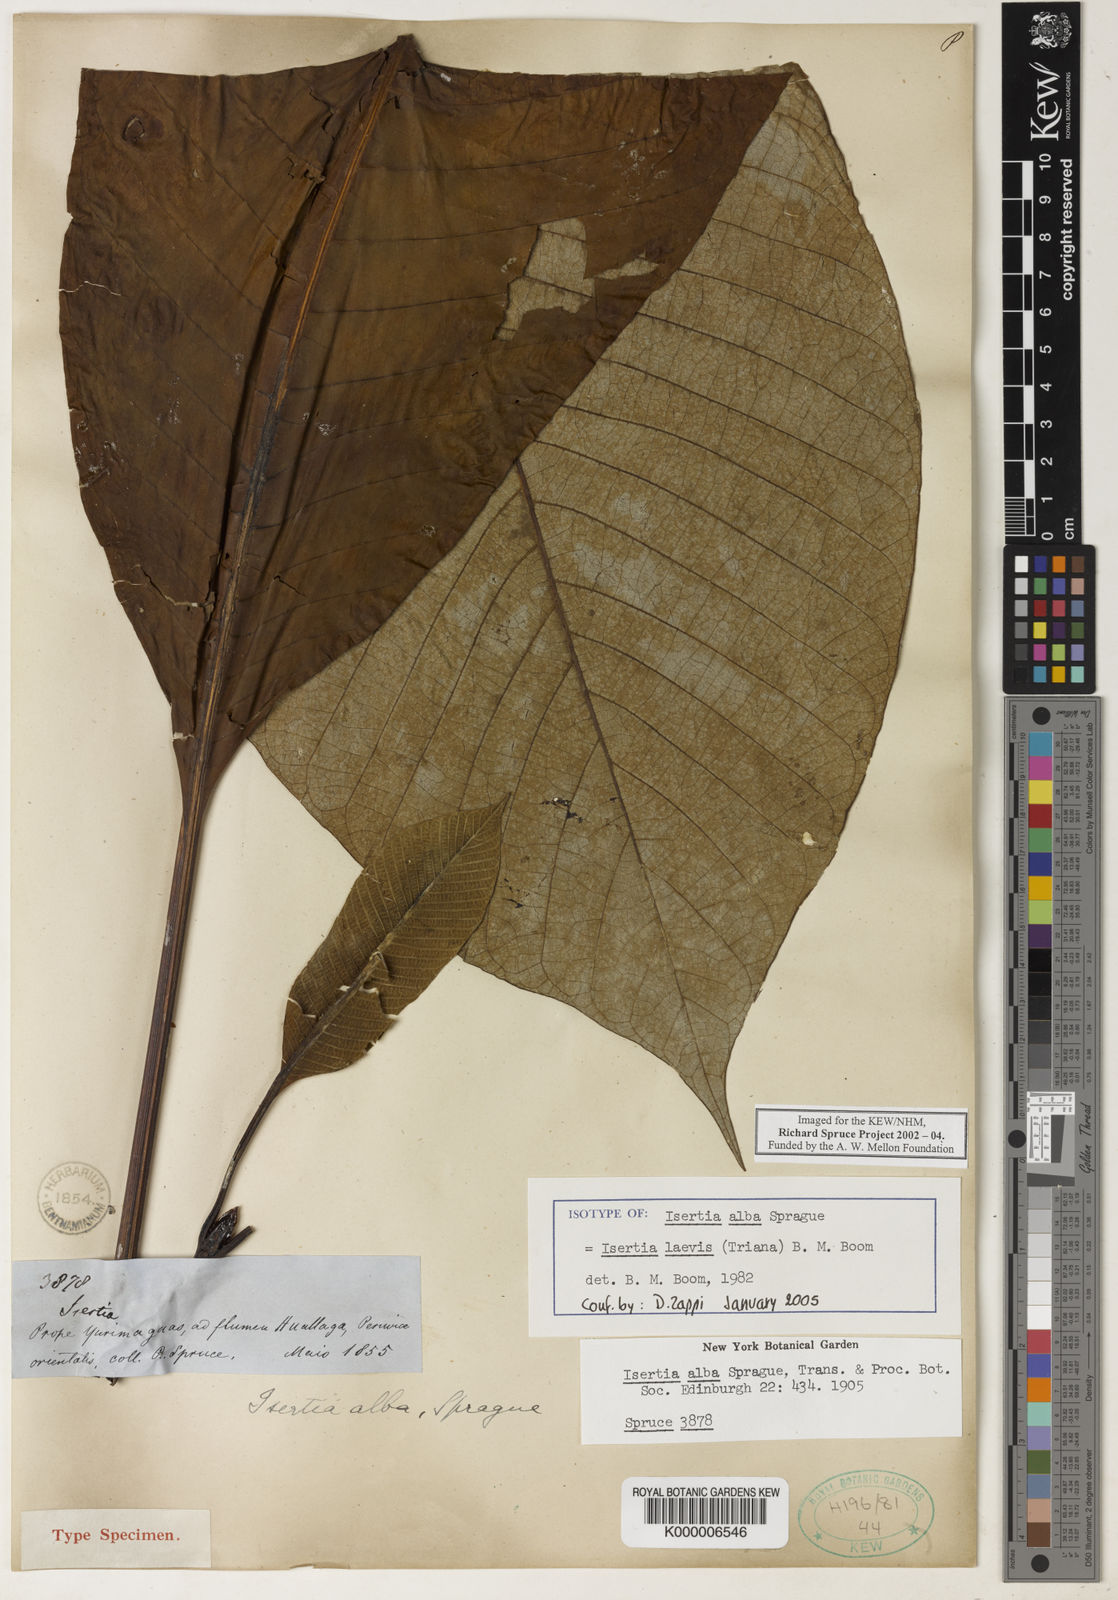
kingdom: Plantae
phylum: Tracheophyta
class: Magnoliopsida
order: Gentianales
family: Rubiaceae
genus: Isertia
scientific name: Isertia laevis
